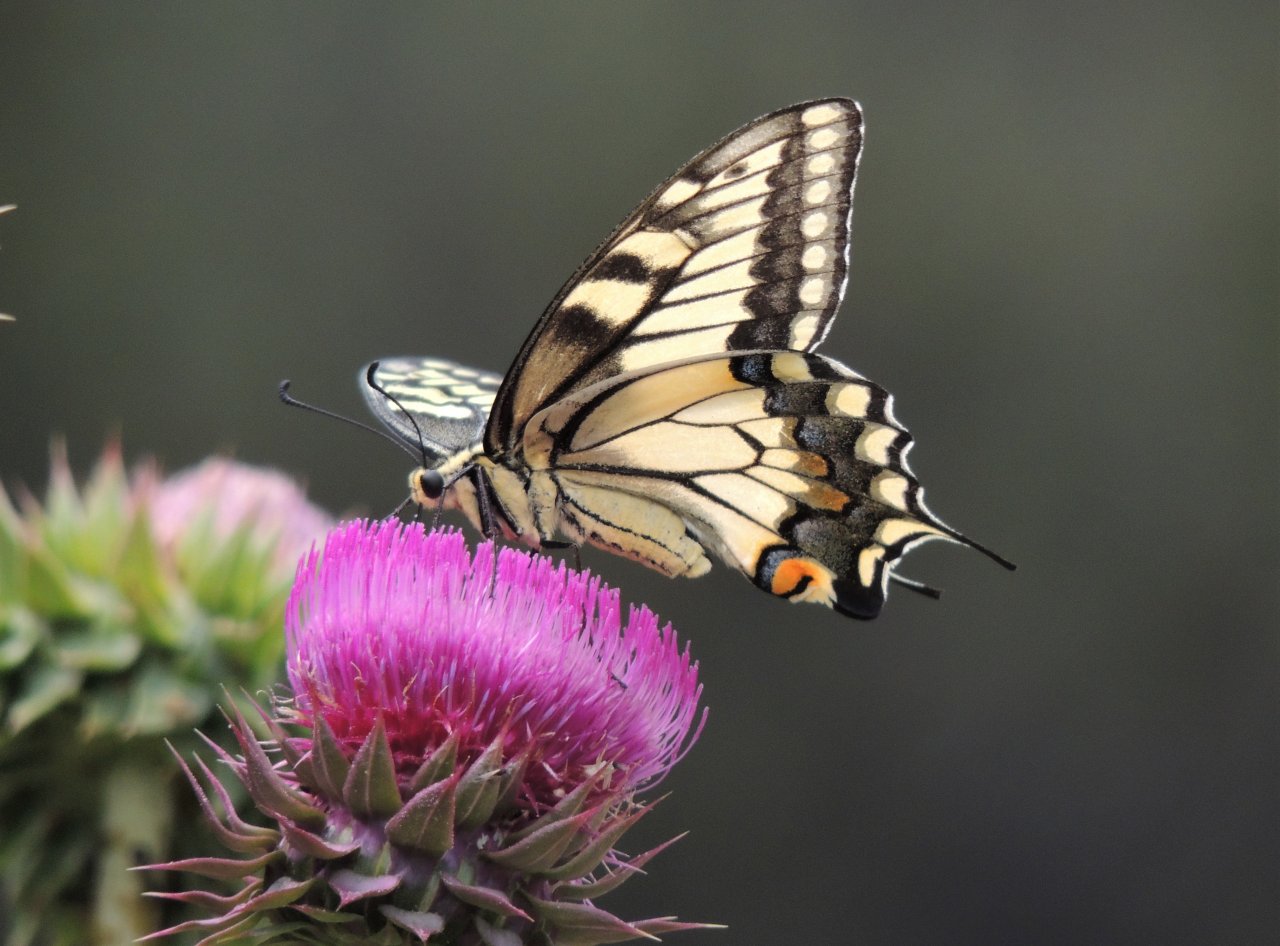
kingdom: Animalia
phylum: Arthropoda
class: Insecta
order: Lepidoptera
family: Papilionidae
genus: Papilio
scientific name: Papilio machaon
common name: Old World Swallowtail
